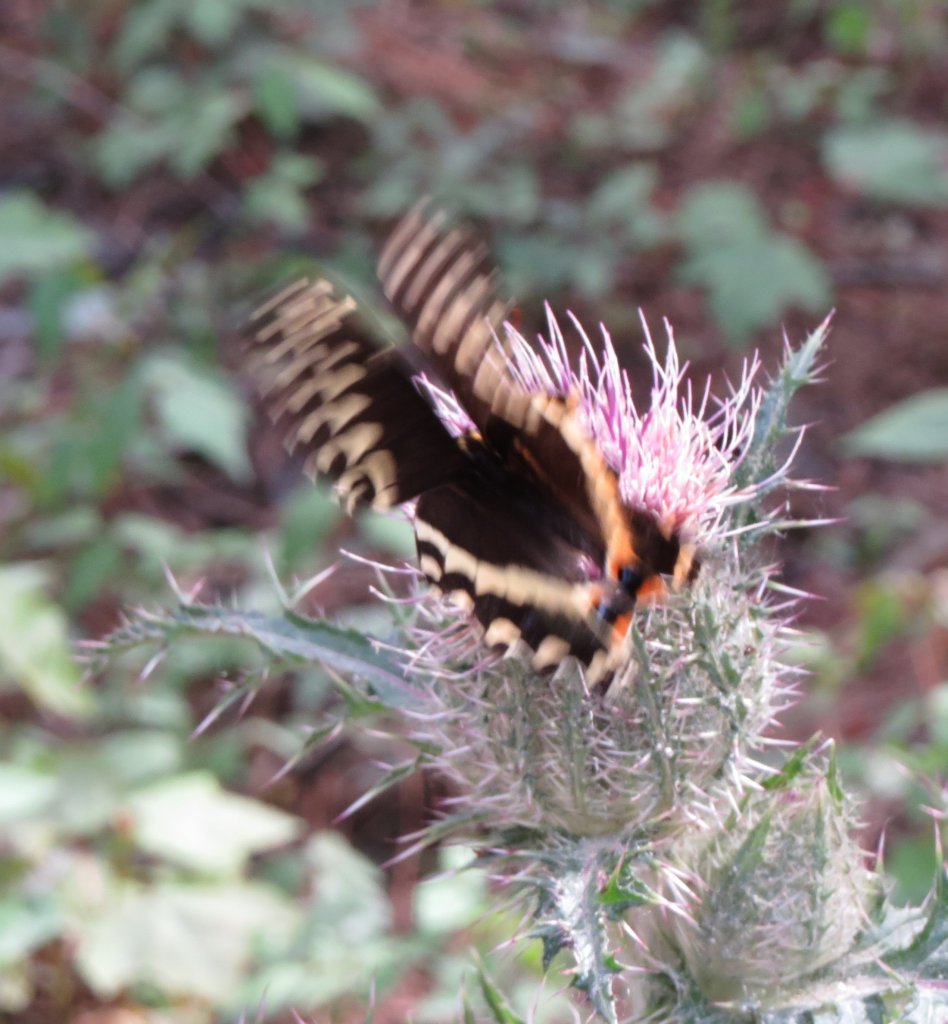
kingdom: Animalia
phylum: Arthropoda
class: Insecta
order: Lepidoptera
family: Papilionidae
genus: Pterourus
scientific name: Pterourus palamedes
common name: Palamedes Swallowtail
